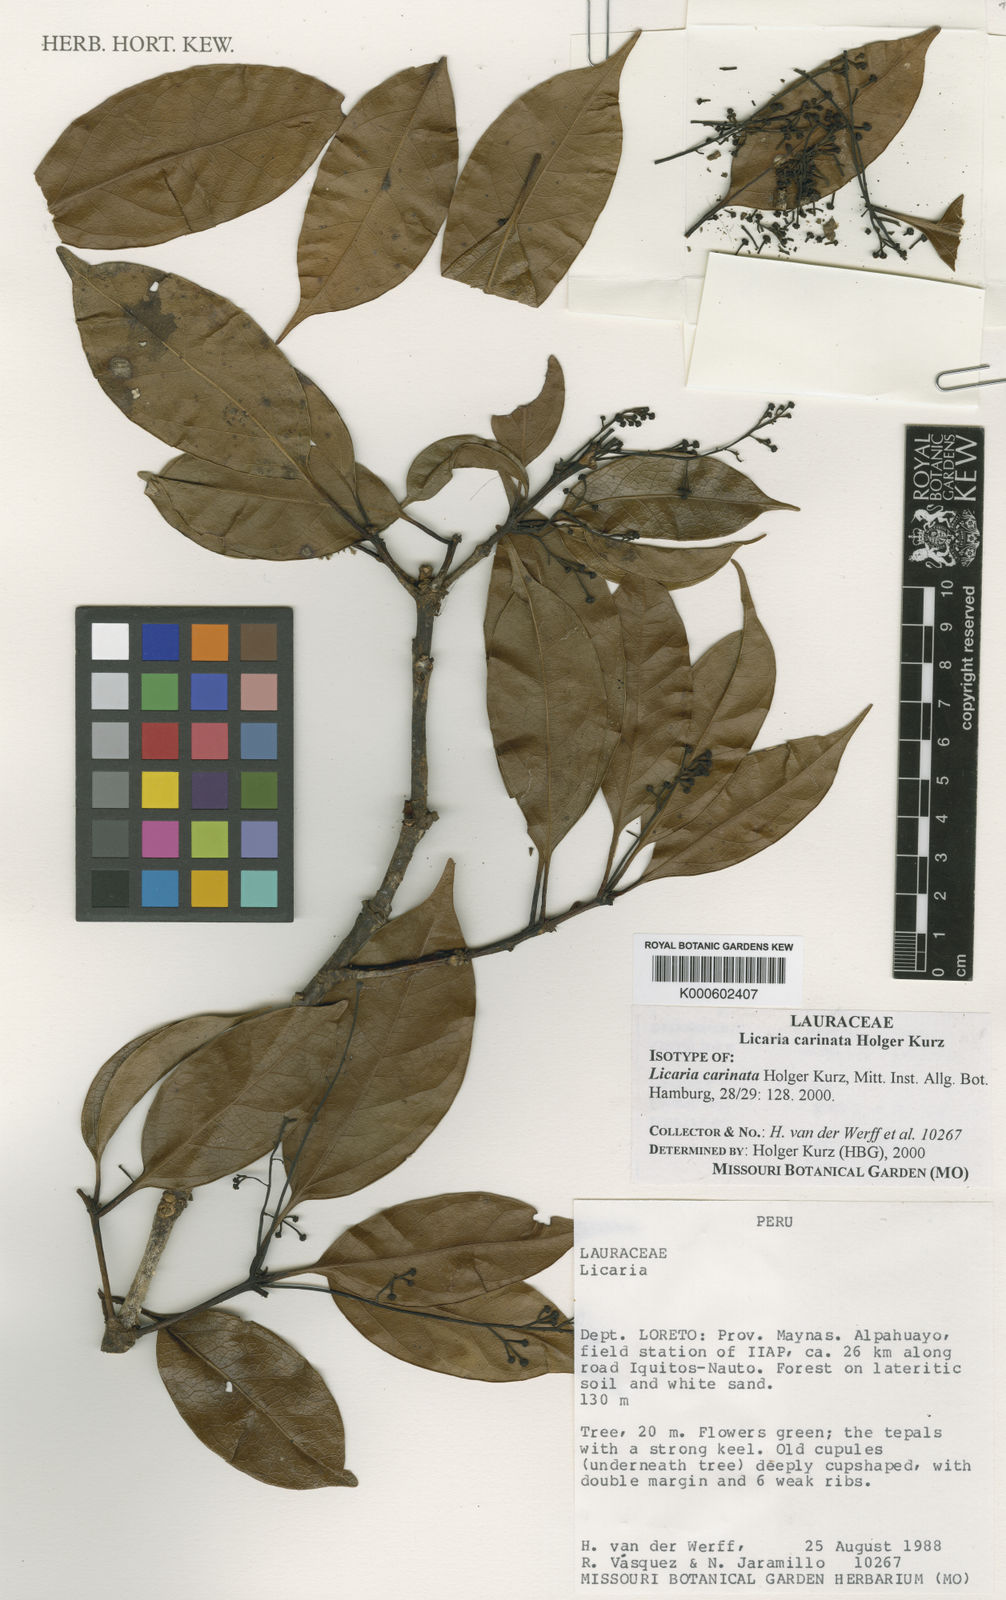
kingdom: Plantae
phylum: Tracheophyta
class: Magnoliopsida
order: Laurales
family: Lauraceae
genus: Licaria
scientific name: Licaria carinata
